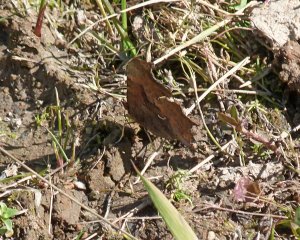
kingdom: Animalia
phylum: Arthropoda
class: Insecta
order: Lepidoptera
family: Nymphalidae
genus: Polygonia
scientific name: Polygonia satyrus
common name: Satyr Comma
